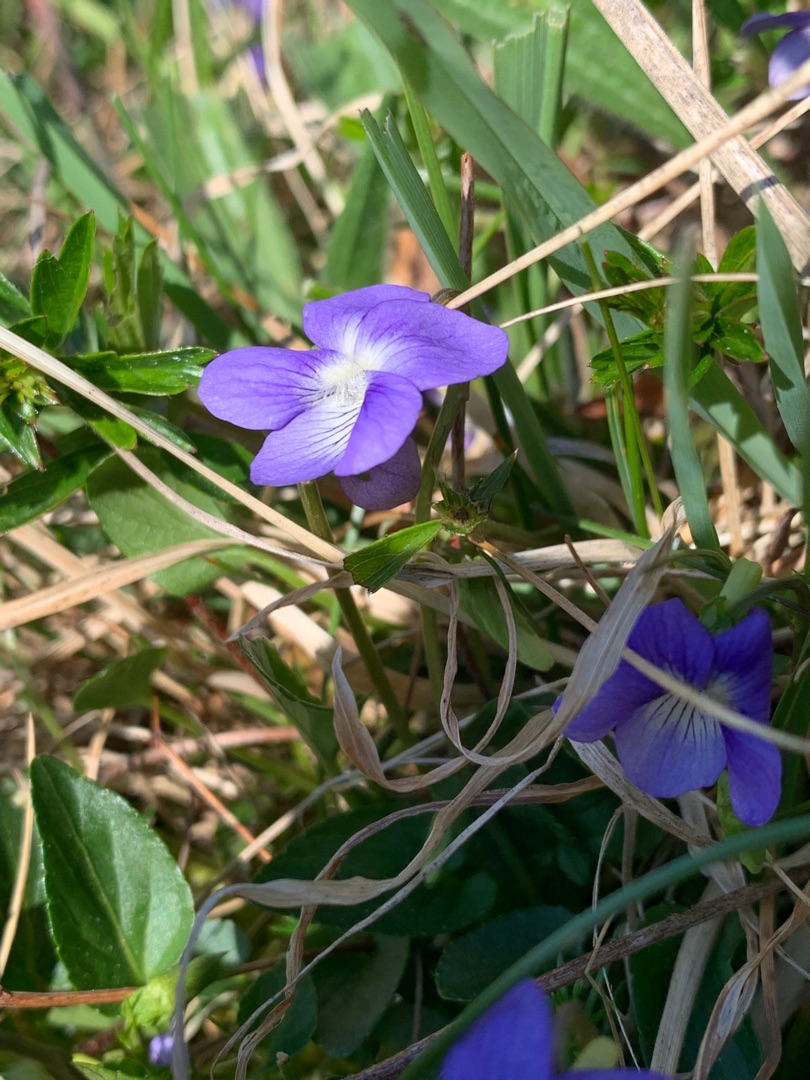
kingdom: Plantae
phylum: Tracheophyta
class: Magnoliopsida
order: Malpighiales
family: Violaceae
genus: Viola
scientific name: Viola canina
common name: Hunde-viol
